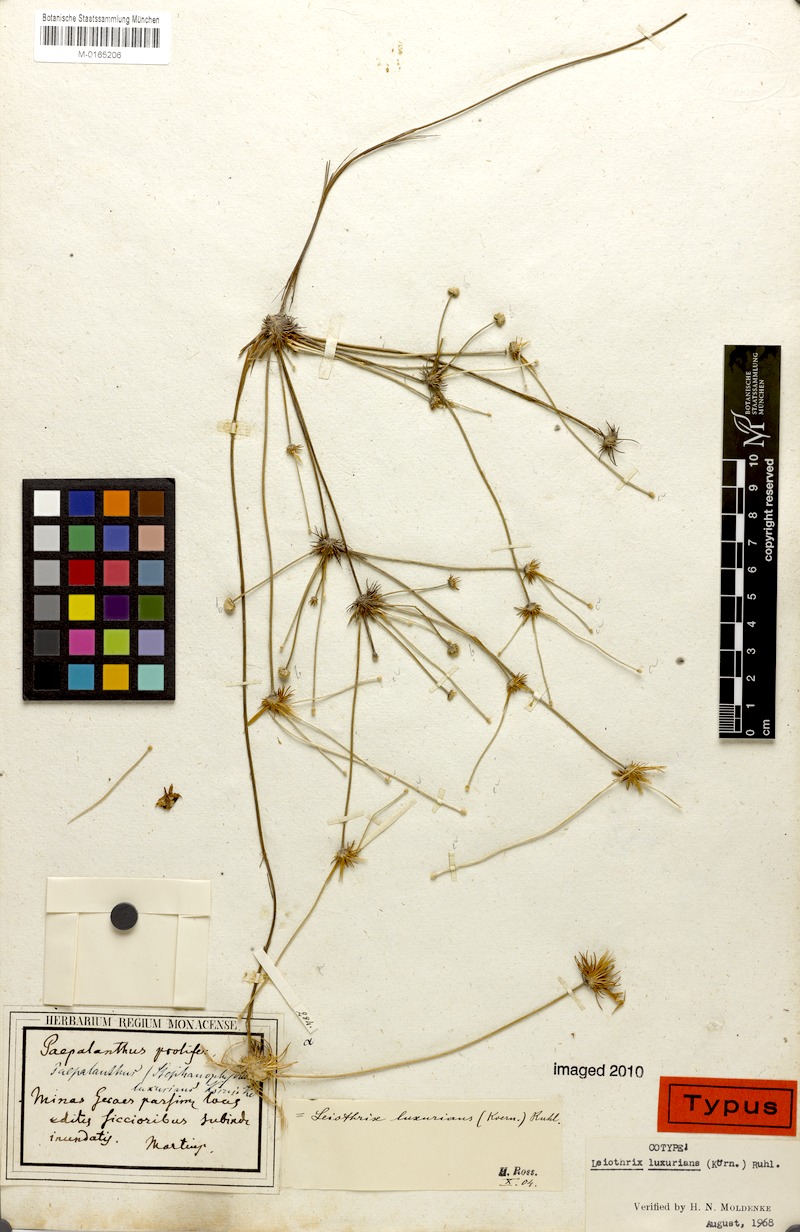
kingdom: Plantae
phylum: Tracheophyta
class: Liliopsida
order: Poales
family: Eriocaulaceae
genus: Leiothrix
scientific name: Leiothrix luxurians
